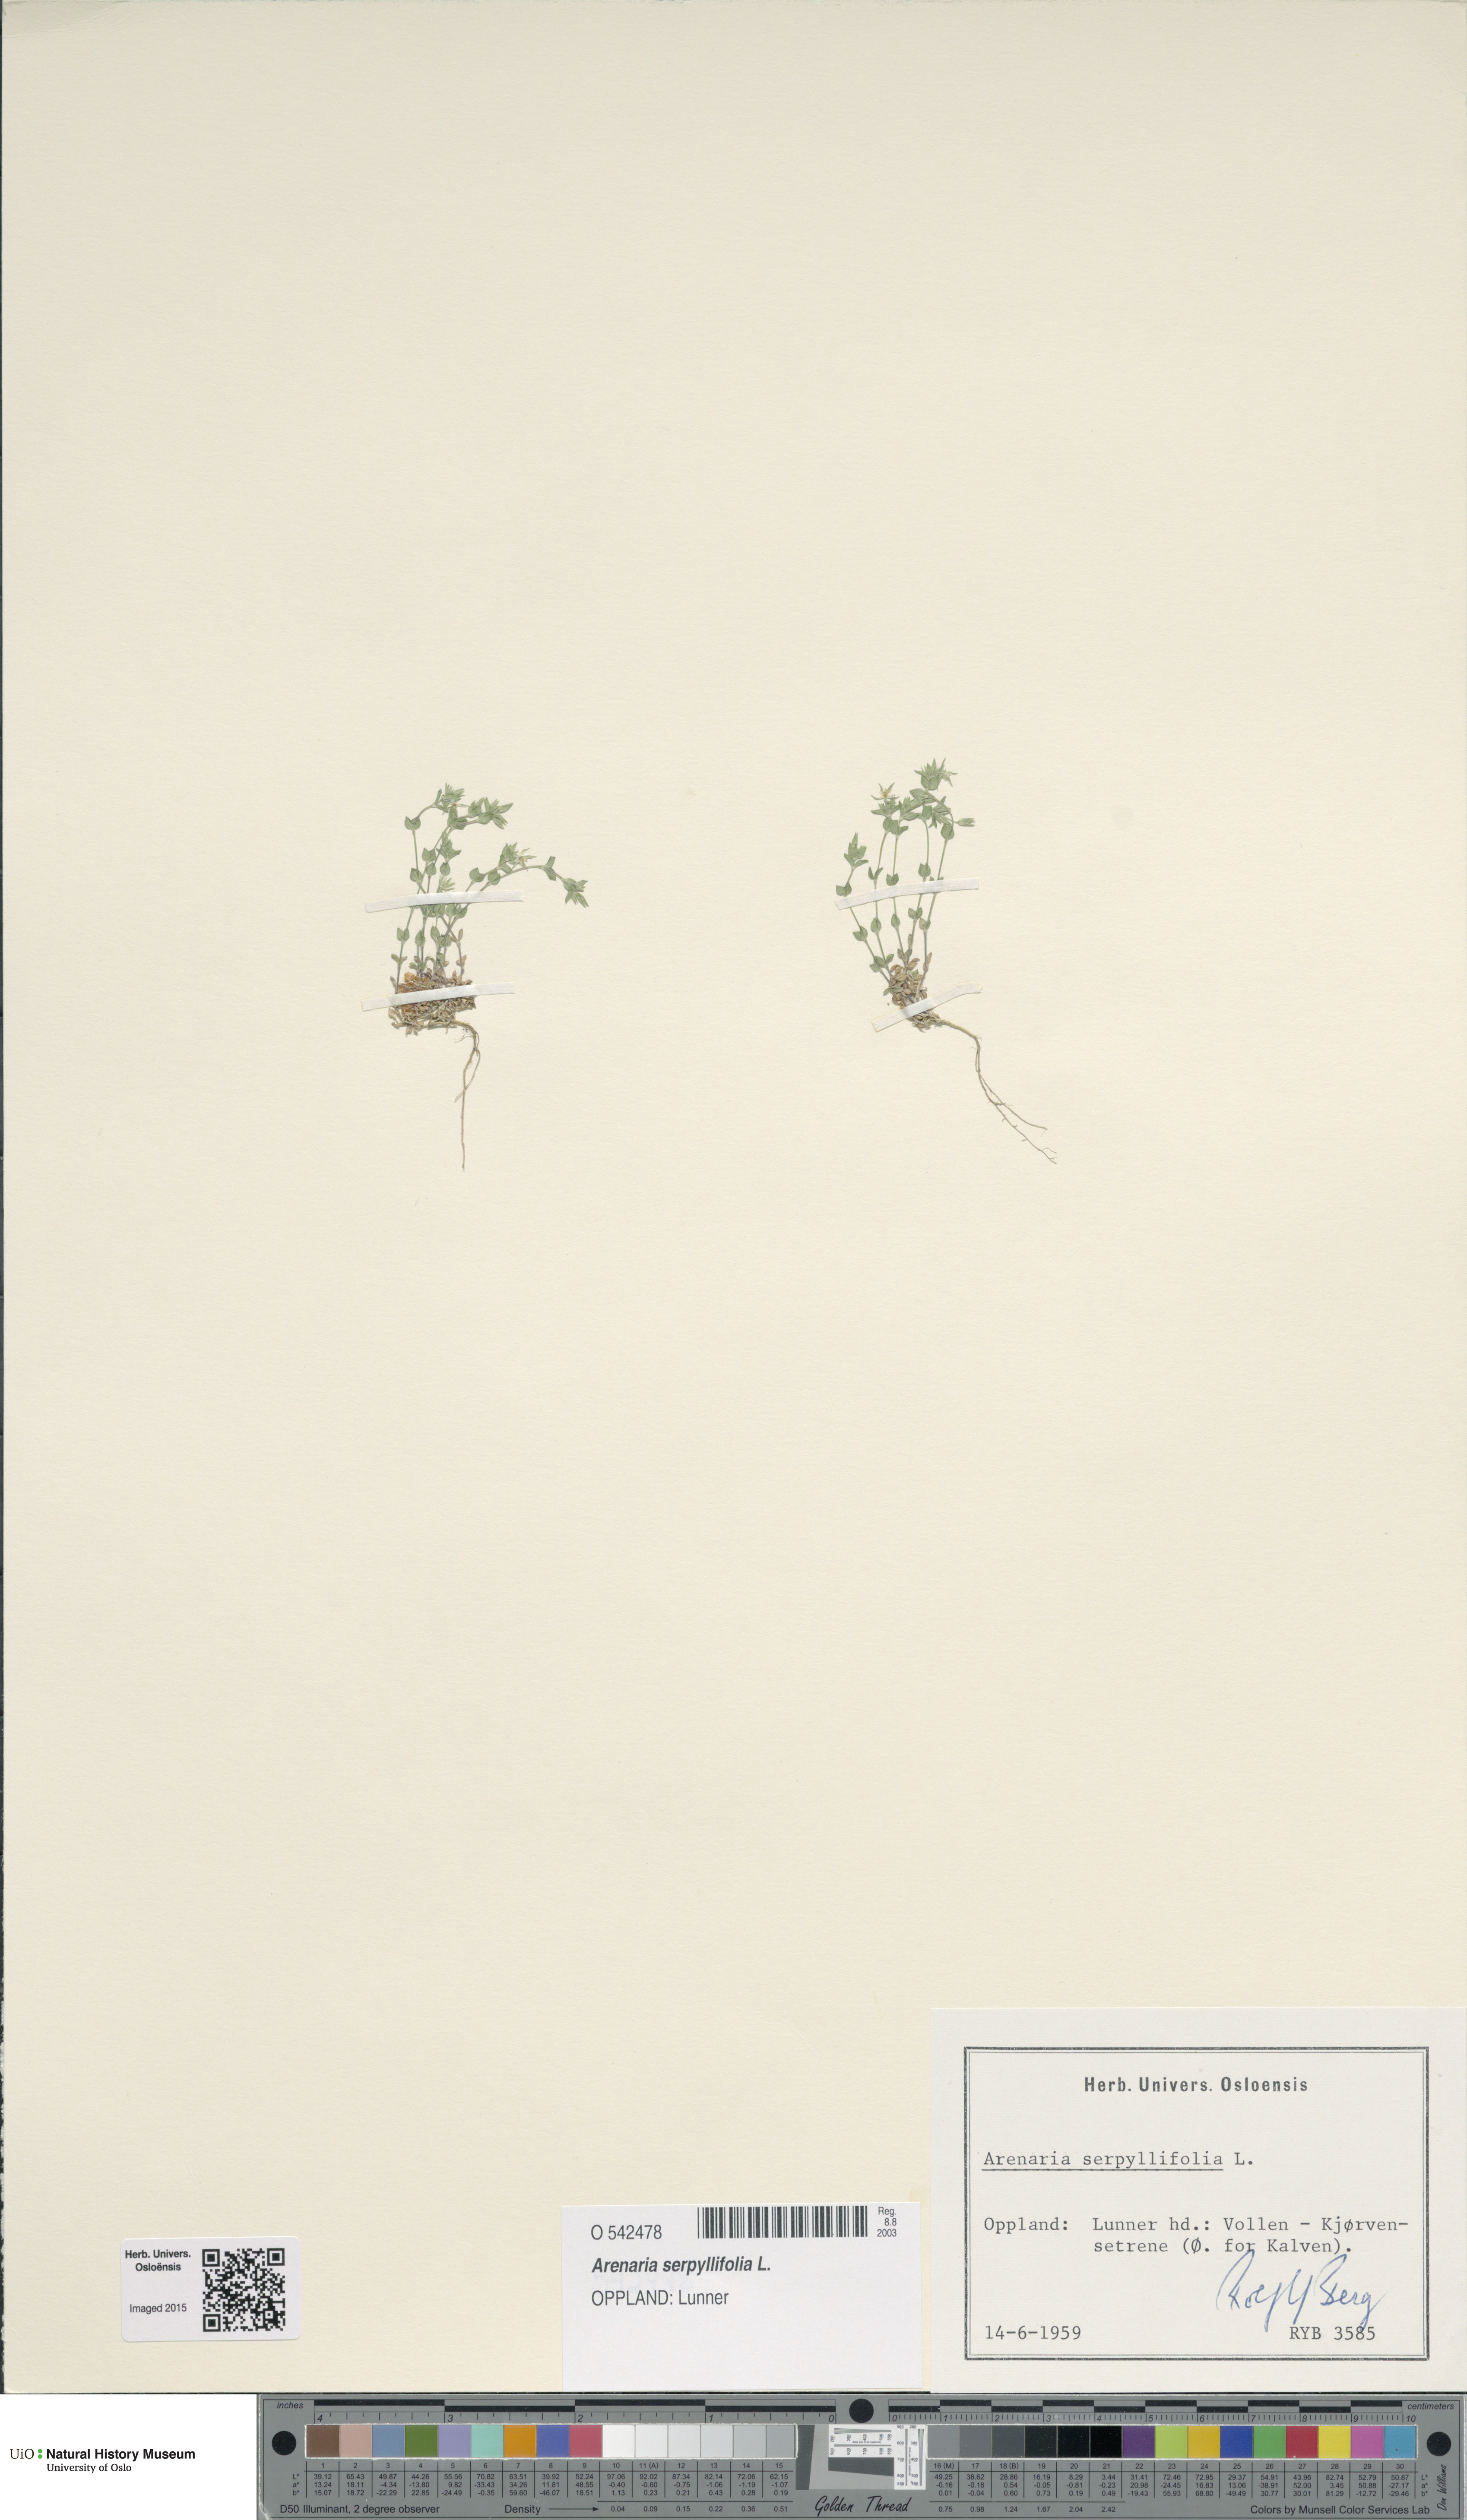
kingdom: Plantae
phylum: Tracheophyta
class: Magnoliopsida
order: Caryophyllales
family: Caryophyllaceae
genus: Arenaria
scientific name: Arenaria serpyllifolia
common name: Thyme-leaved sandwort
